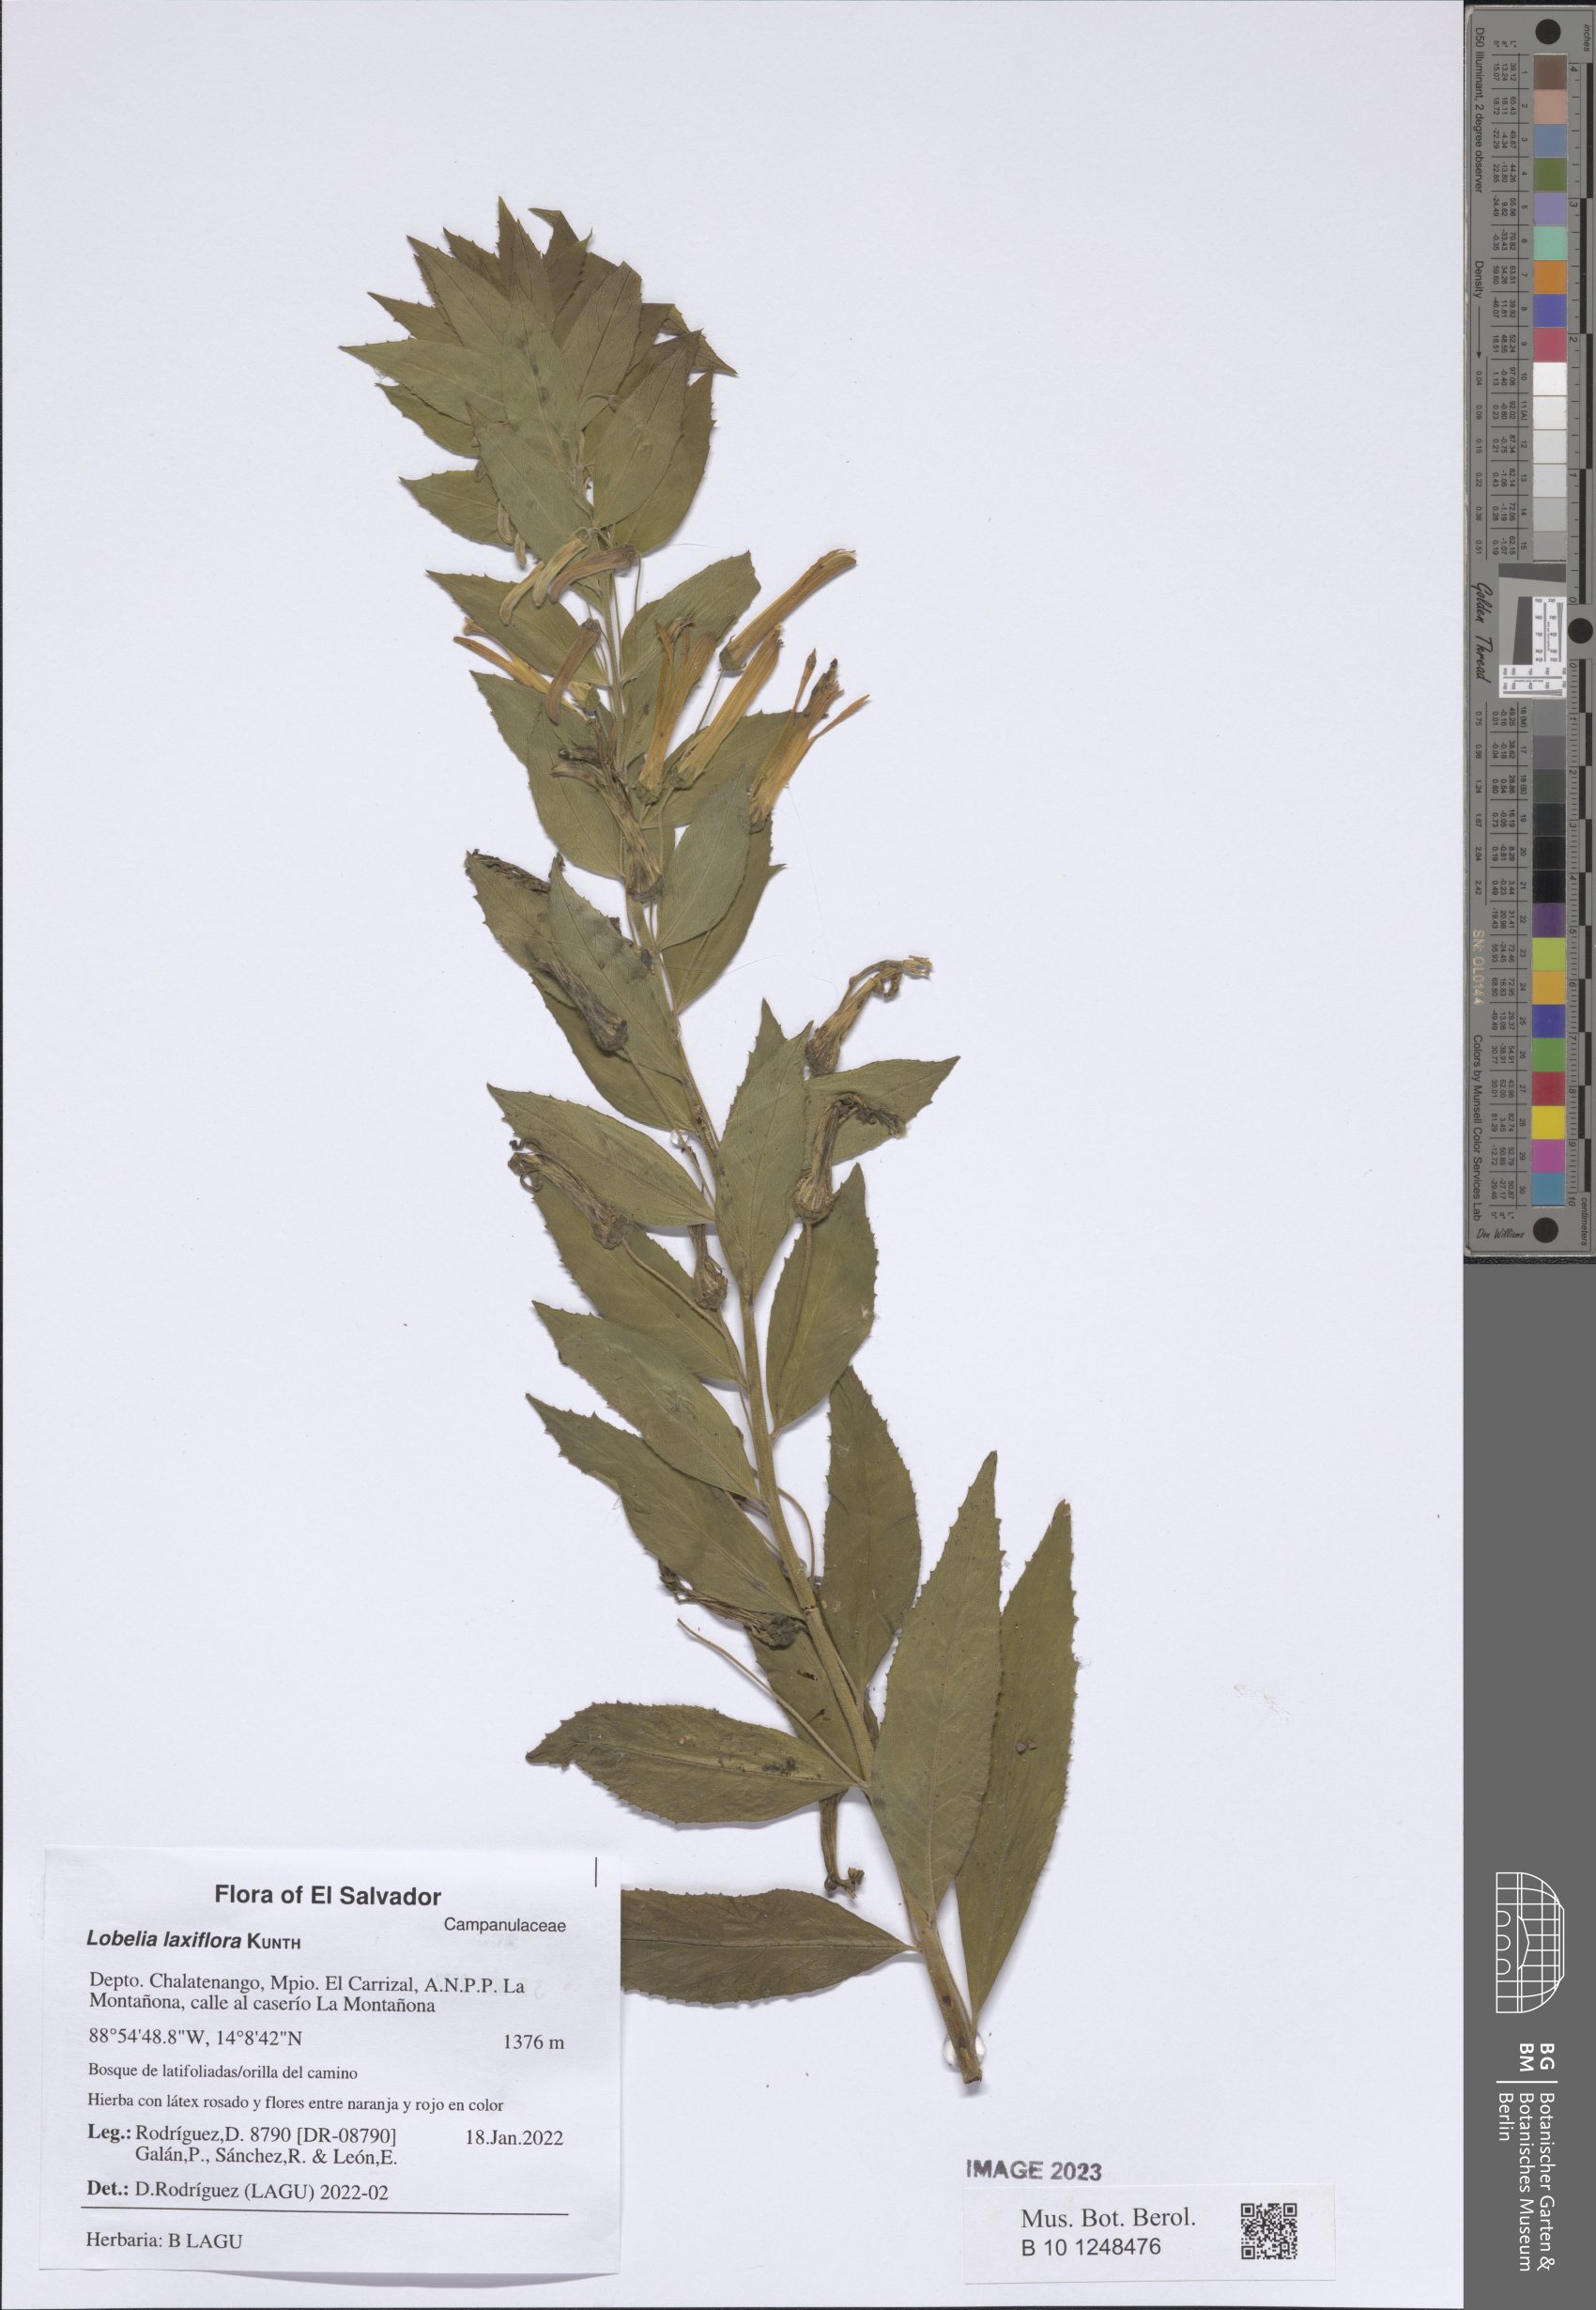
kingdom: Plantae
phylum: Tracheophyta
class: Magnoliopsida
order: Asterales
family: Campanulaceae
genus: Lobelia
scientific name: Lobelia laxiflora
